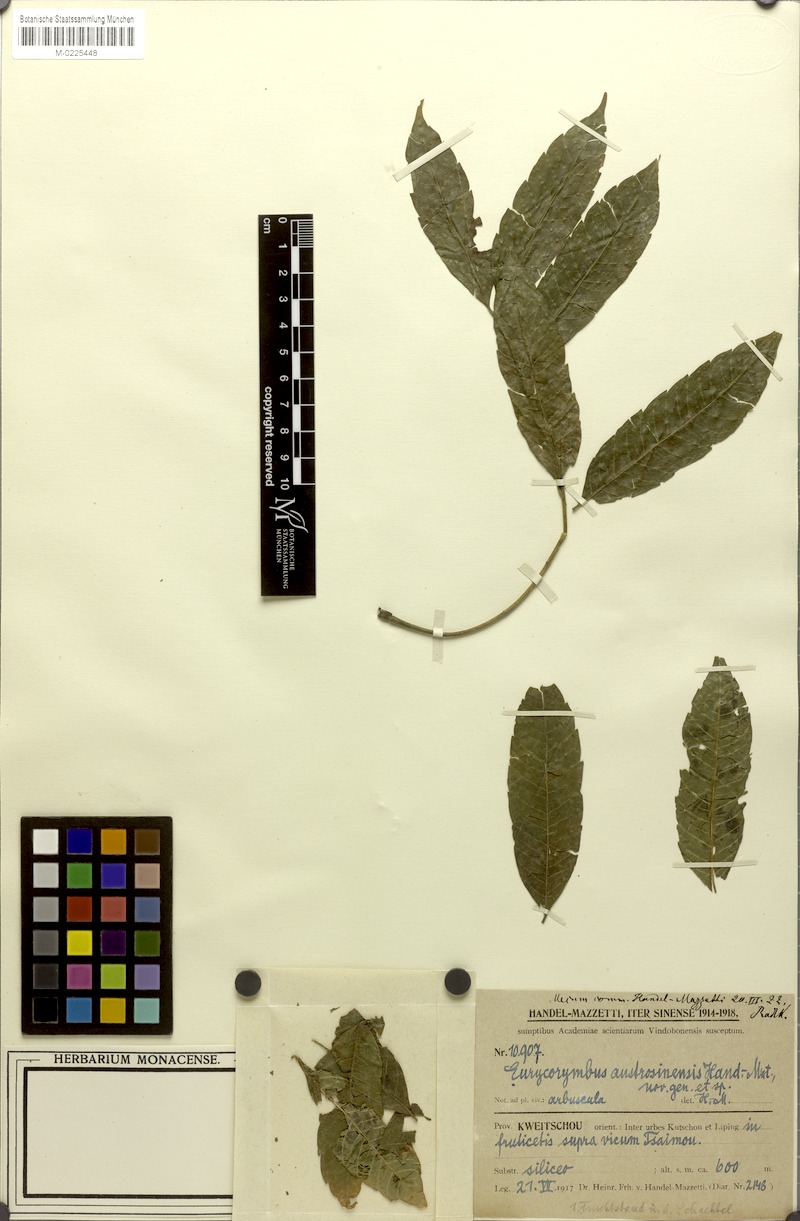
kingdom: Plantae
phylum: Tracheophyta
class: Magnoliopsida
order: Sapindales
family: Sapindaceae
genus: Eurycorymbus
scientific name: Eurycorymbus cavaleriei
